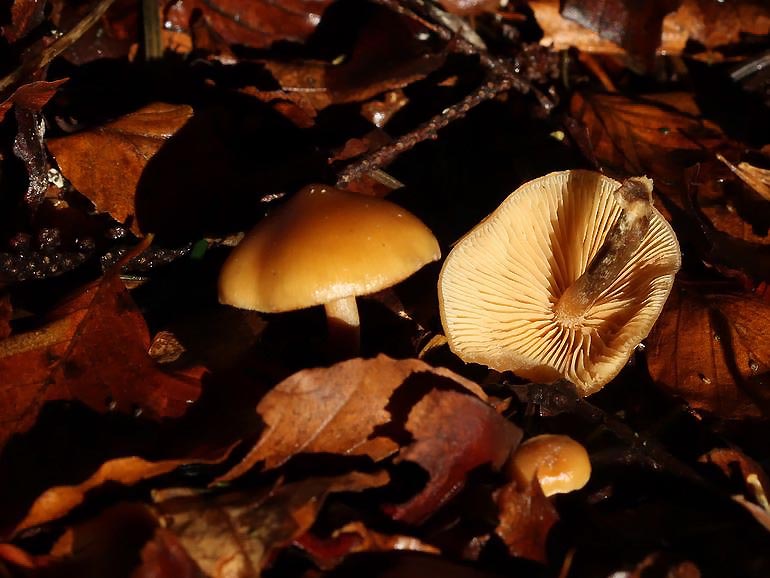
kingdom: Fungi
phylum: Basidiomycota
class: Agaricomycetes
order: Agaricales
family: Hymenogastraceae
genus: Galerina
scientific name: Galerina sideroides
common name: træflis-hjelmhat
